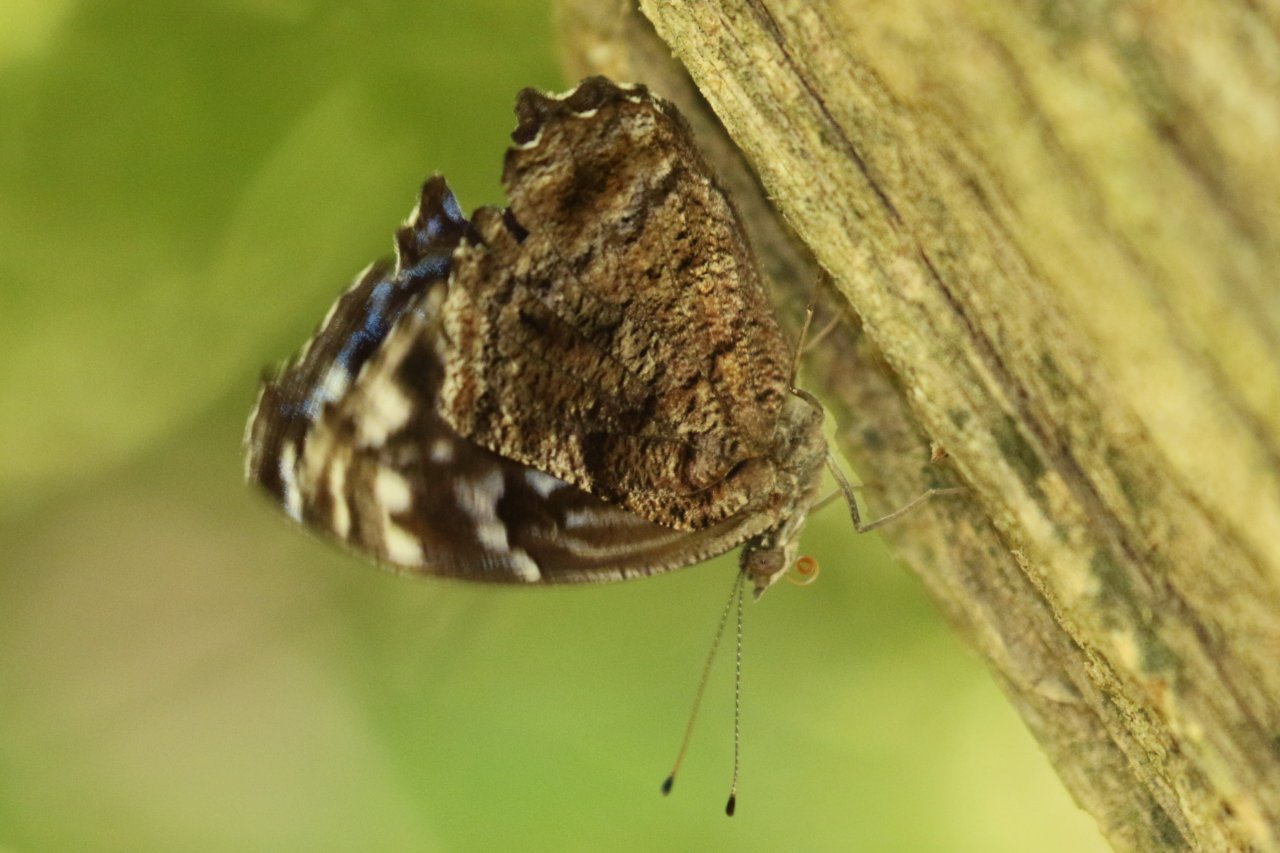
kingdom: Animalia
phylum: Arthropoda
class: Insecta
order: Lepidoptera
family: Nymphalidae
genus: Myscelia
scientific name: Myscelia ethusa
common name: Mexican Bluewing
